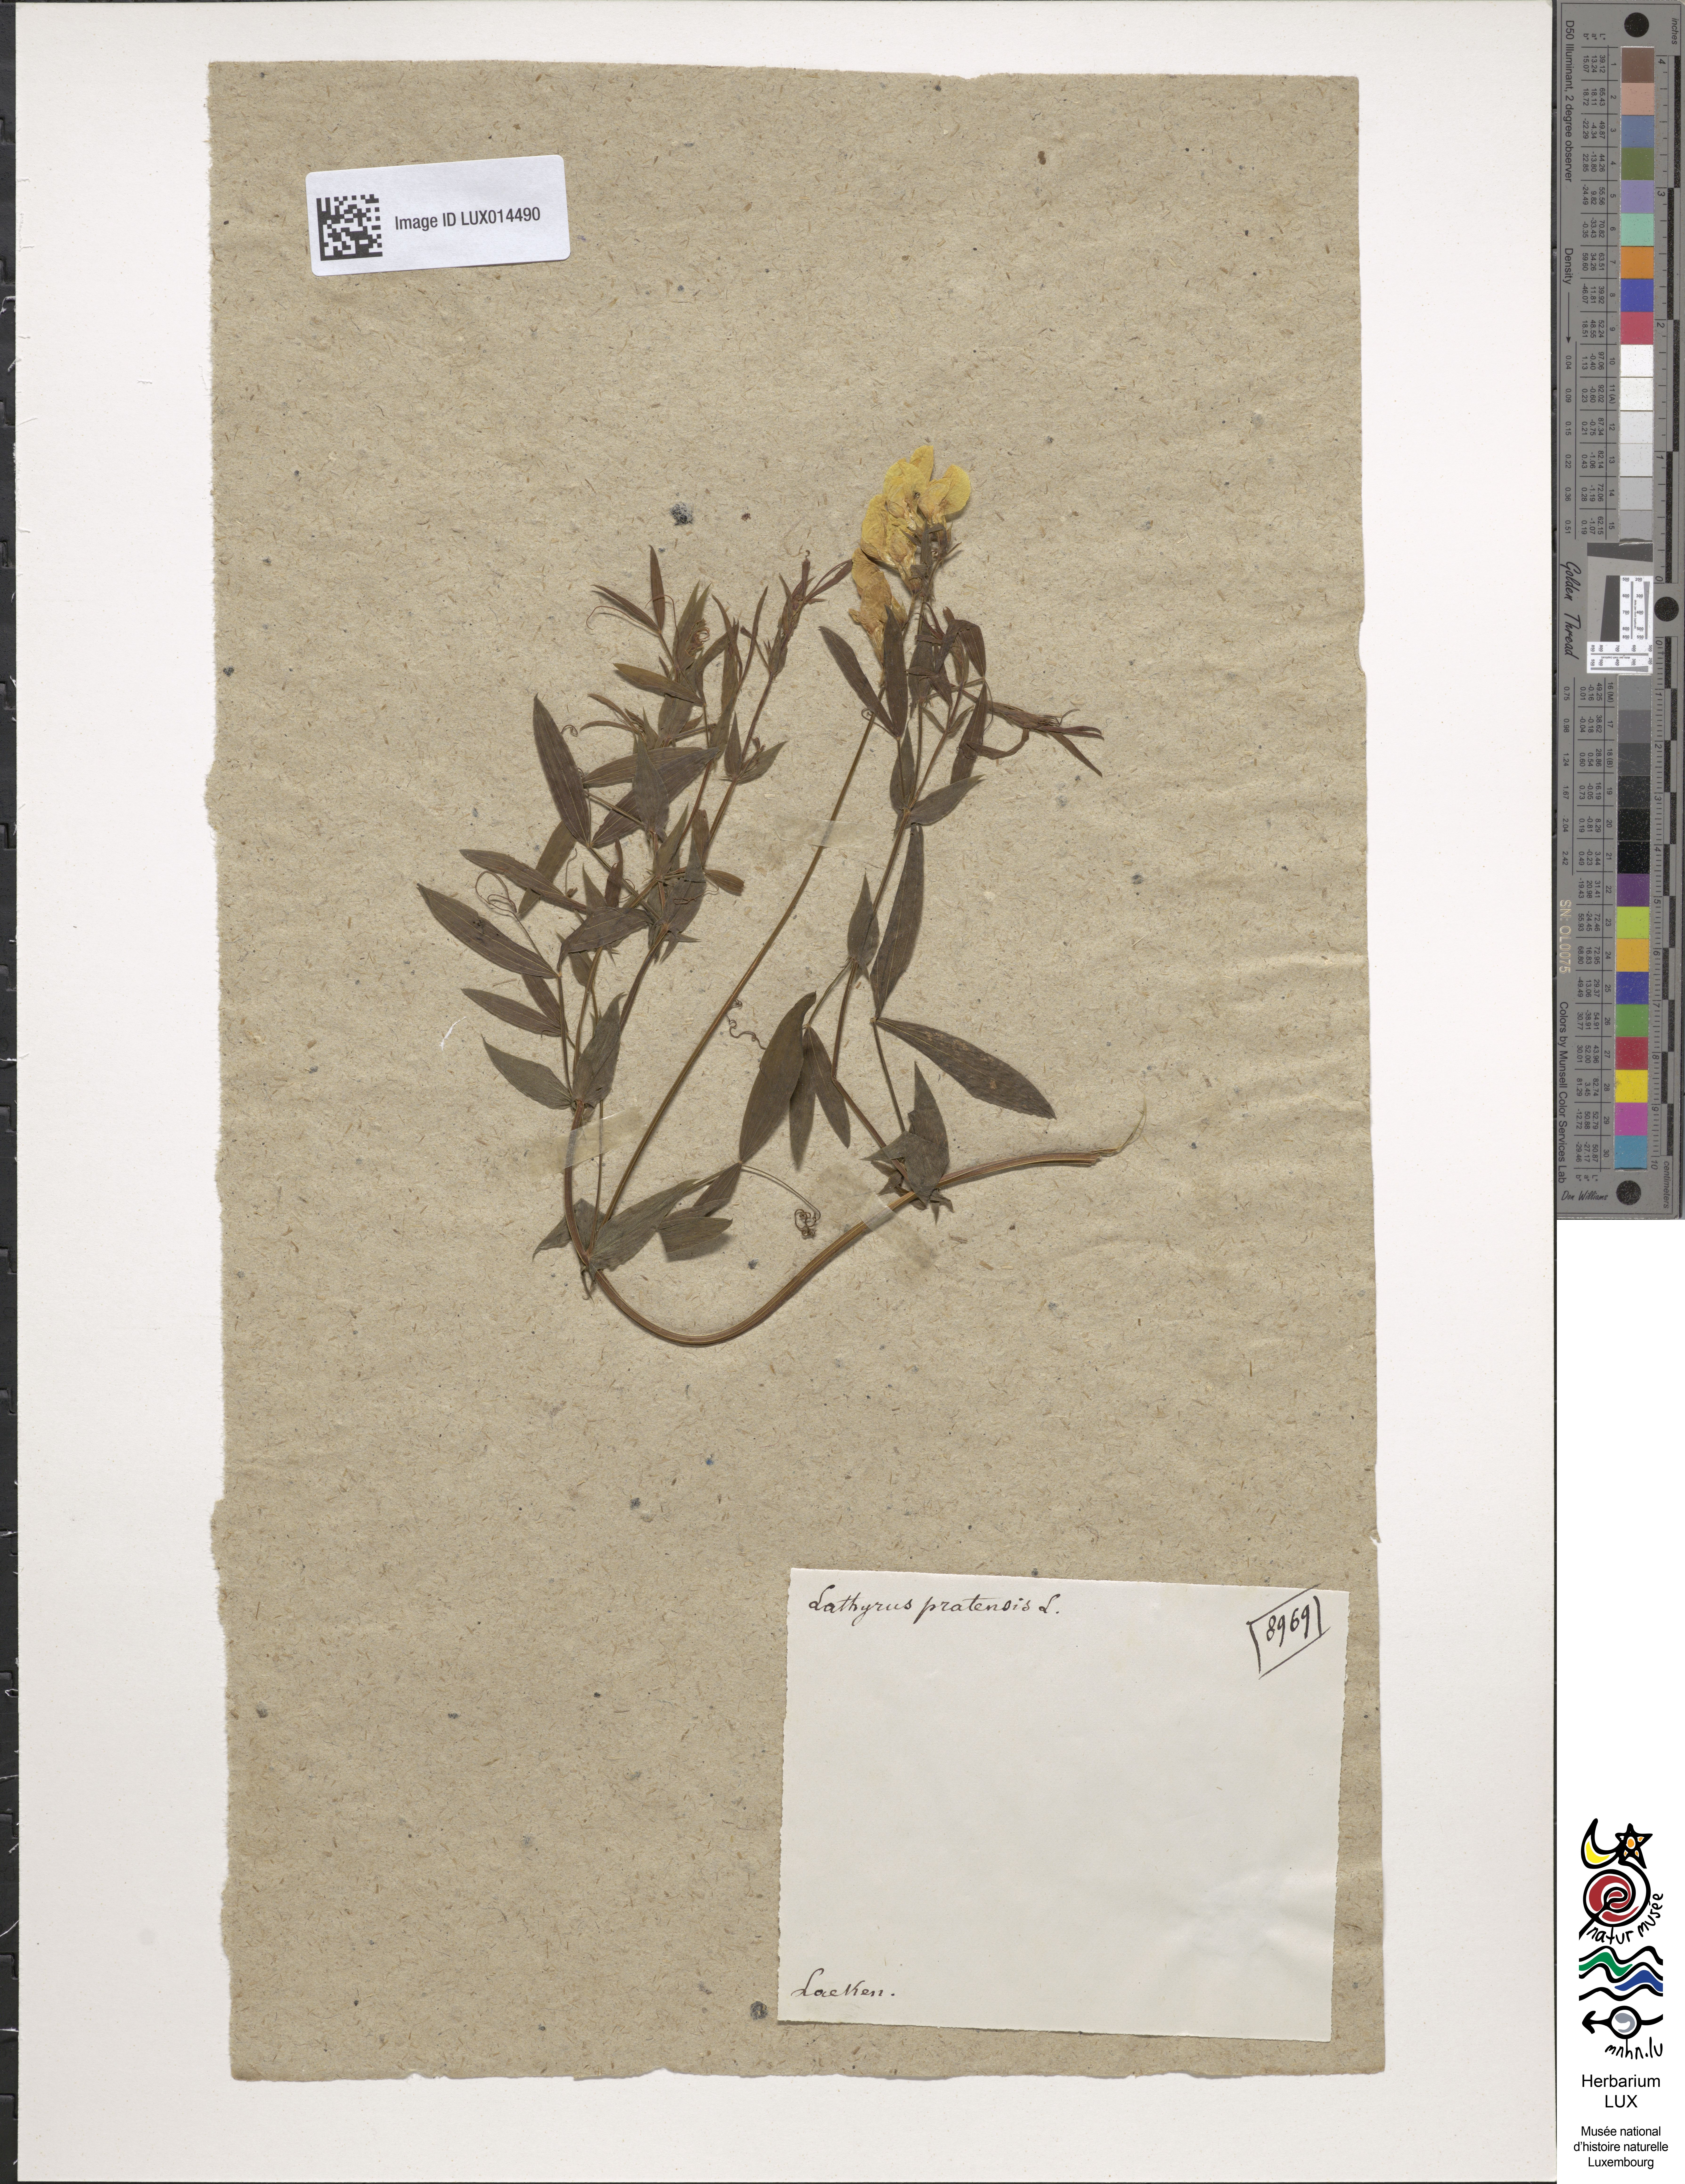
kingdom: Plantae
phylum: Tracheophyta
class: Magnoliopsida
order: Fabales
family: Fabaceae
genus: Lathyrus
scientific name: Lathyrus pratensis
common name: Meadow vetchling
